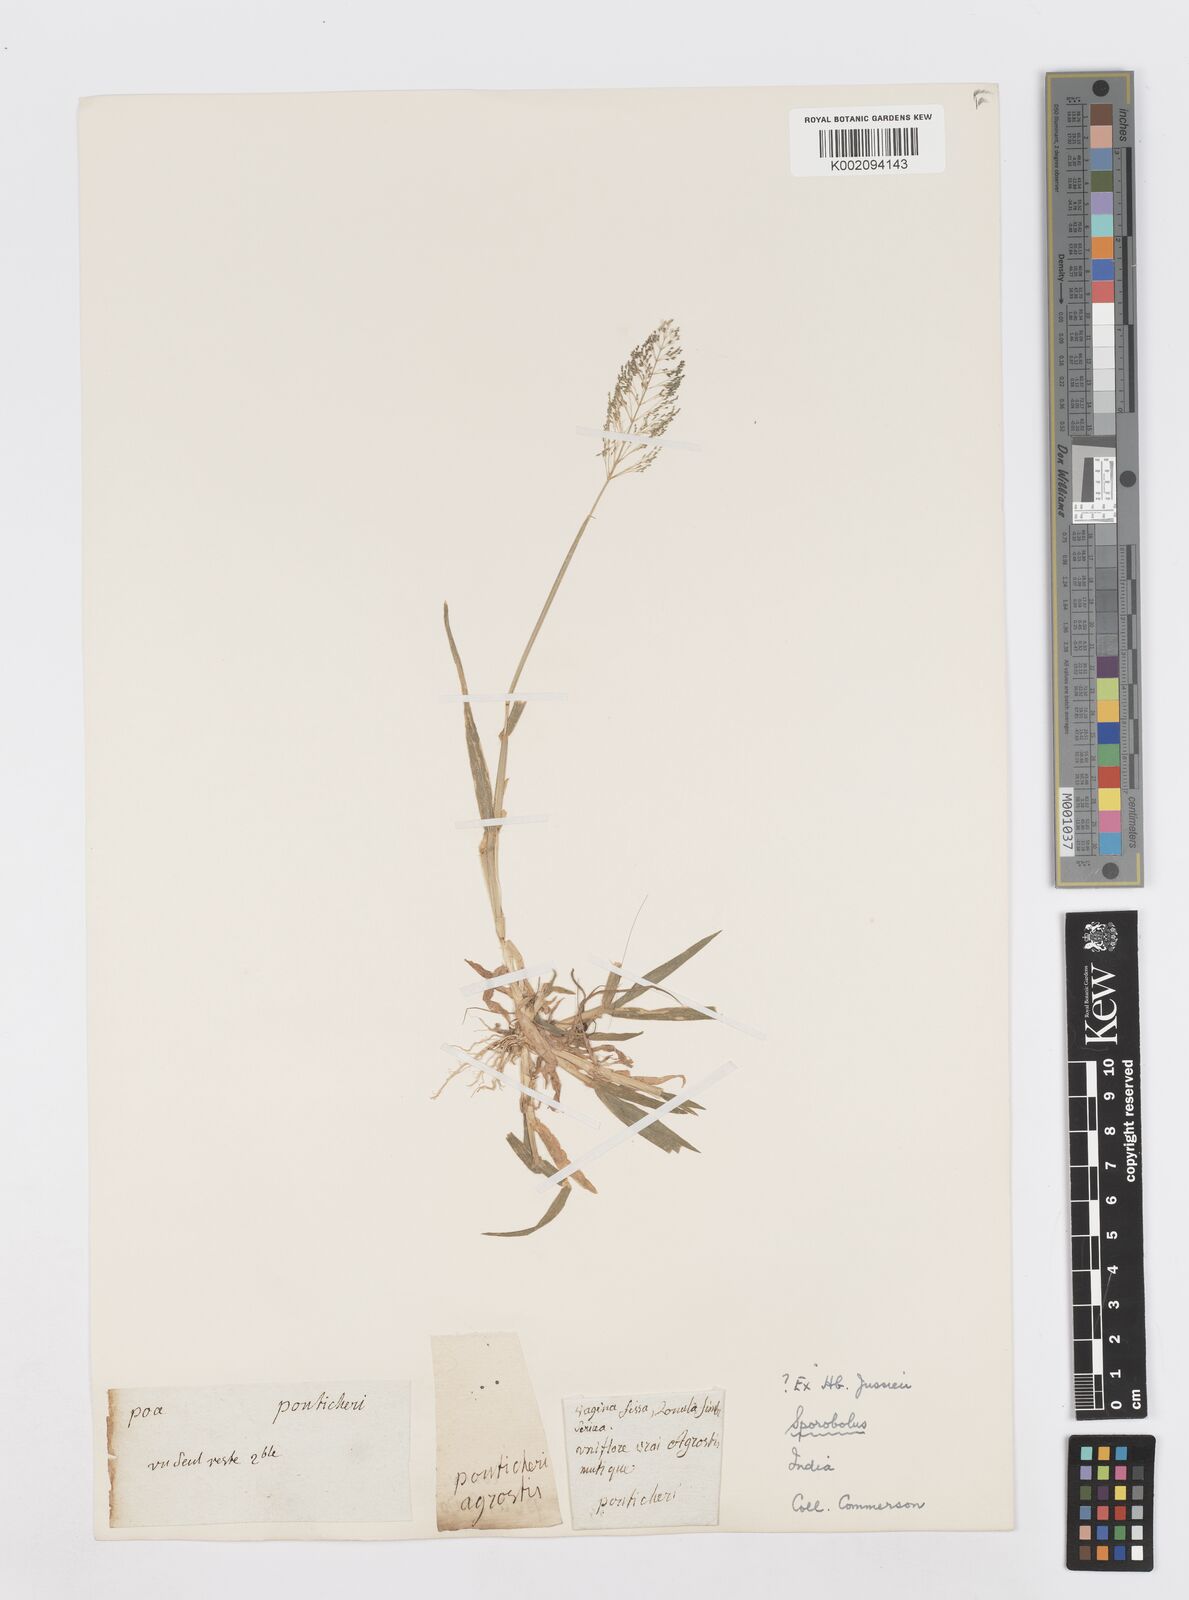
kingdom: Plantae
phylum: Tracheophyta
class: Liliopsida
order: Poales
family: Poaceae
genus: Sporobolus
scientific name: Sporobolus coromandelianus
